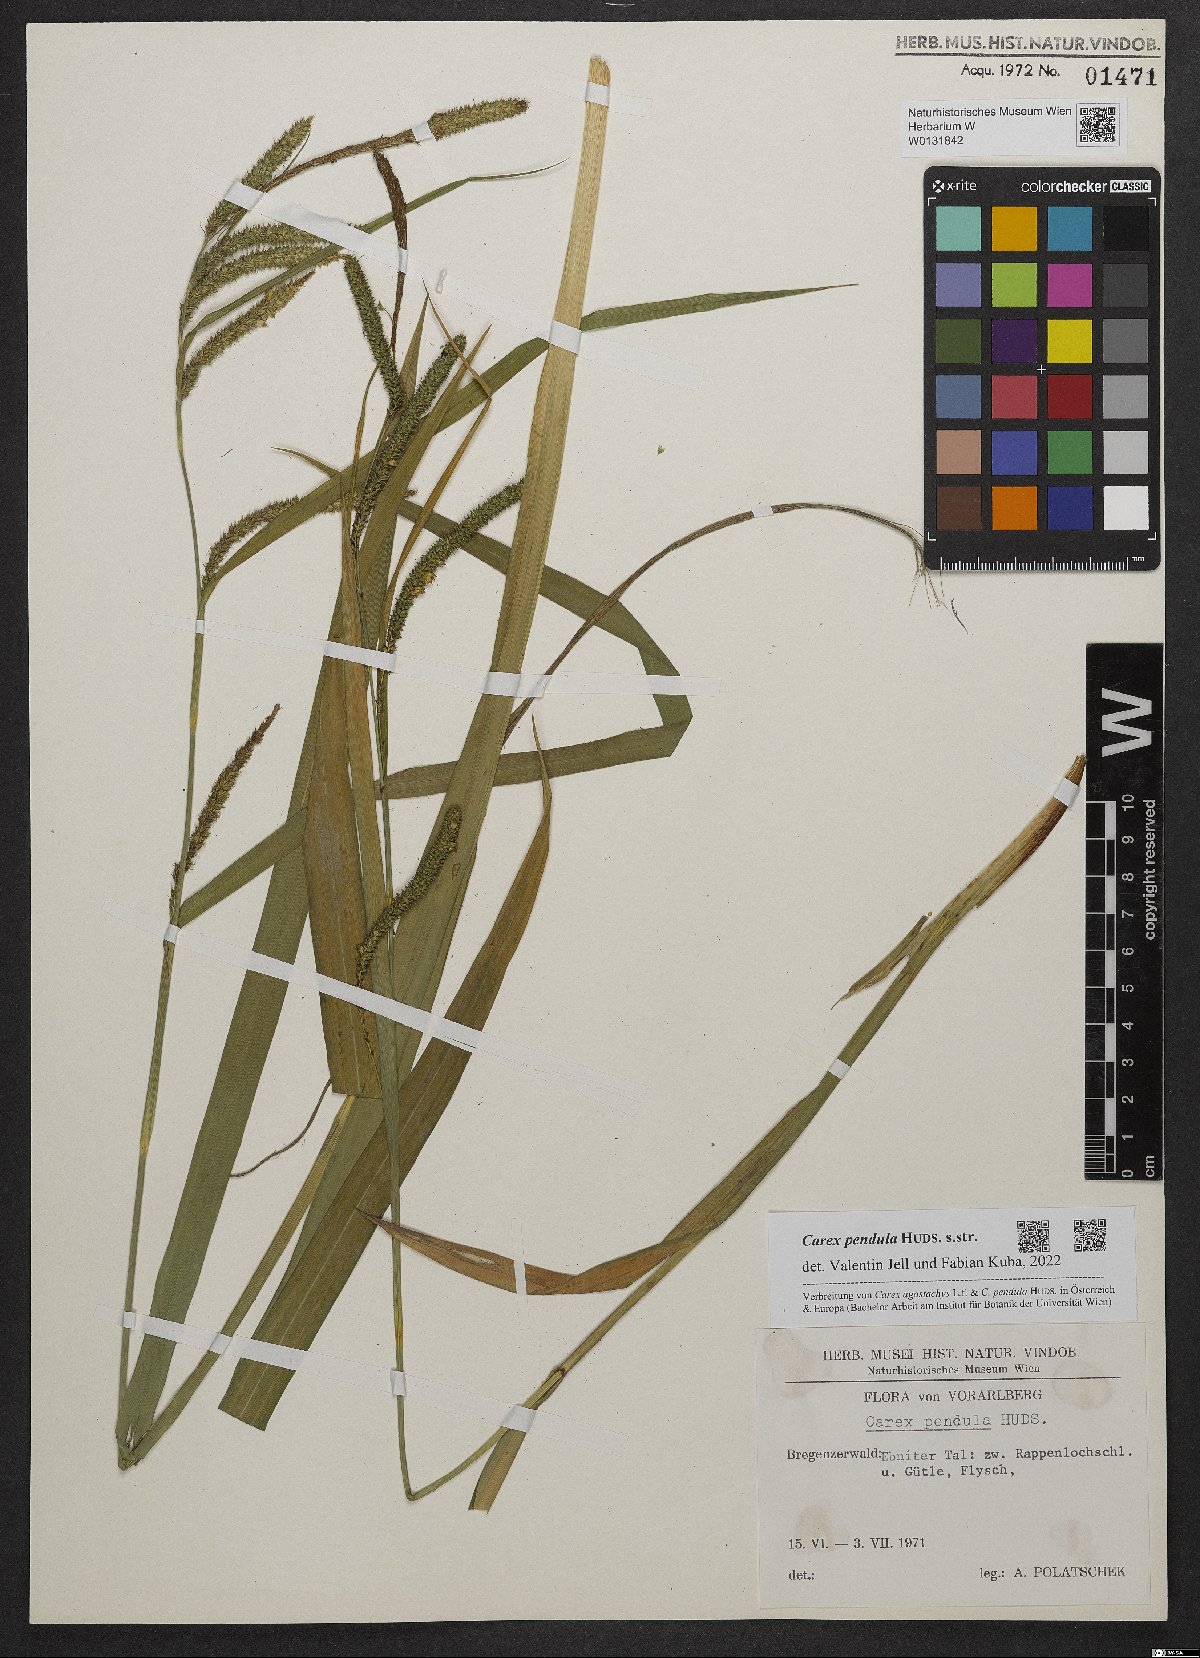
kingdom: Plantae
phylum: Tracheophyta
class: Liliopsida
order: Poales
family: Cyperaceae
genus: Carex
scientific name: Carex pendula
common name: Pendulous sedge
